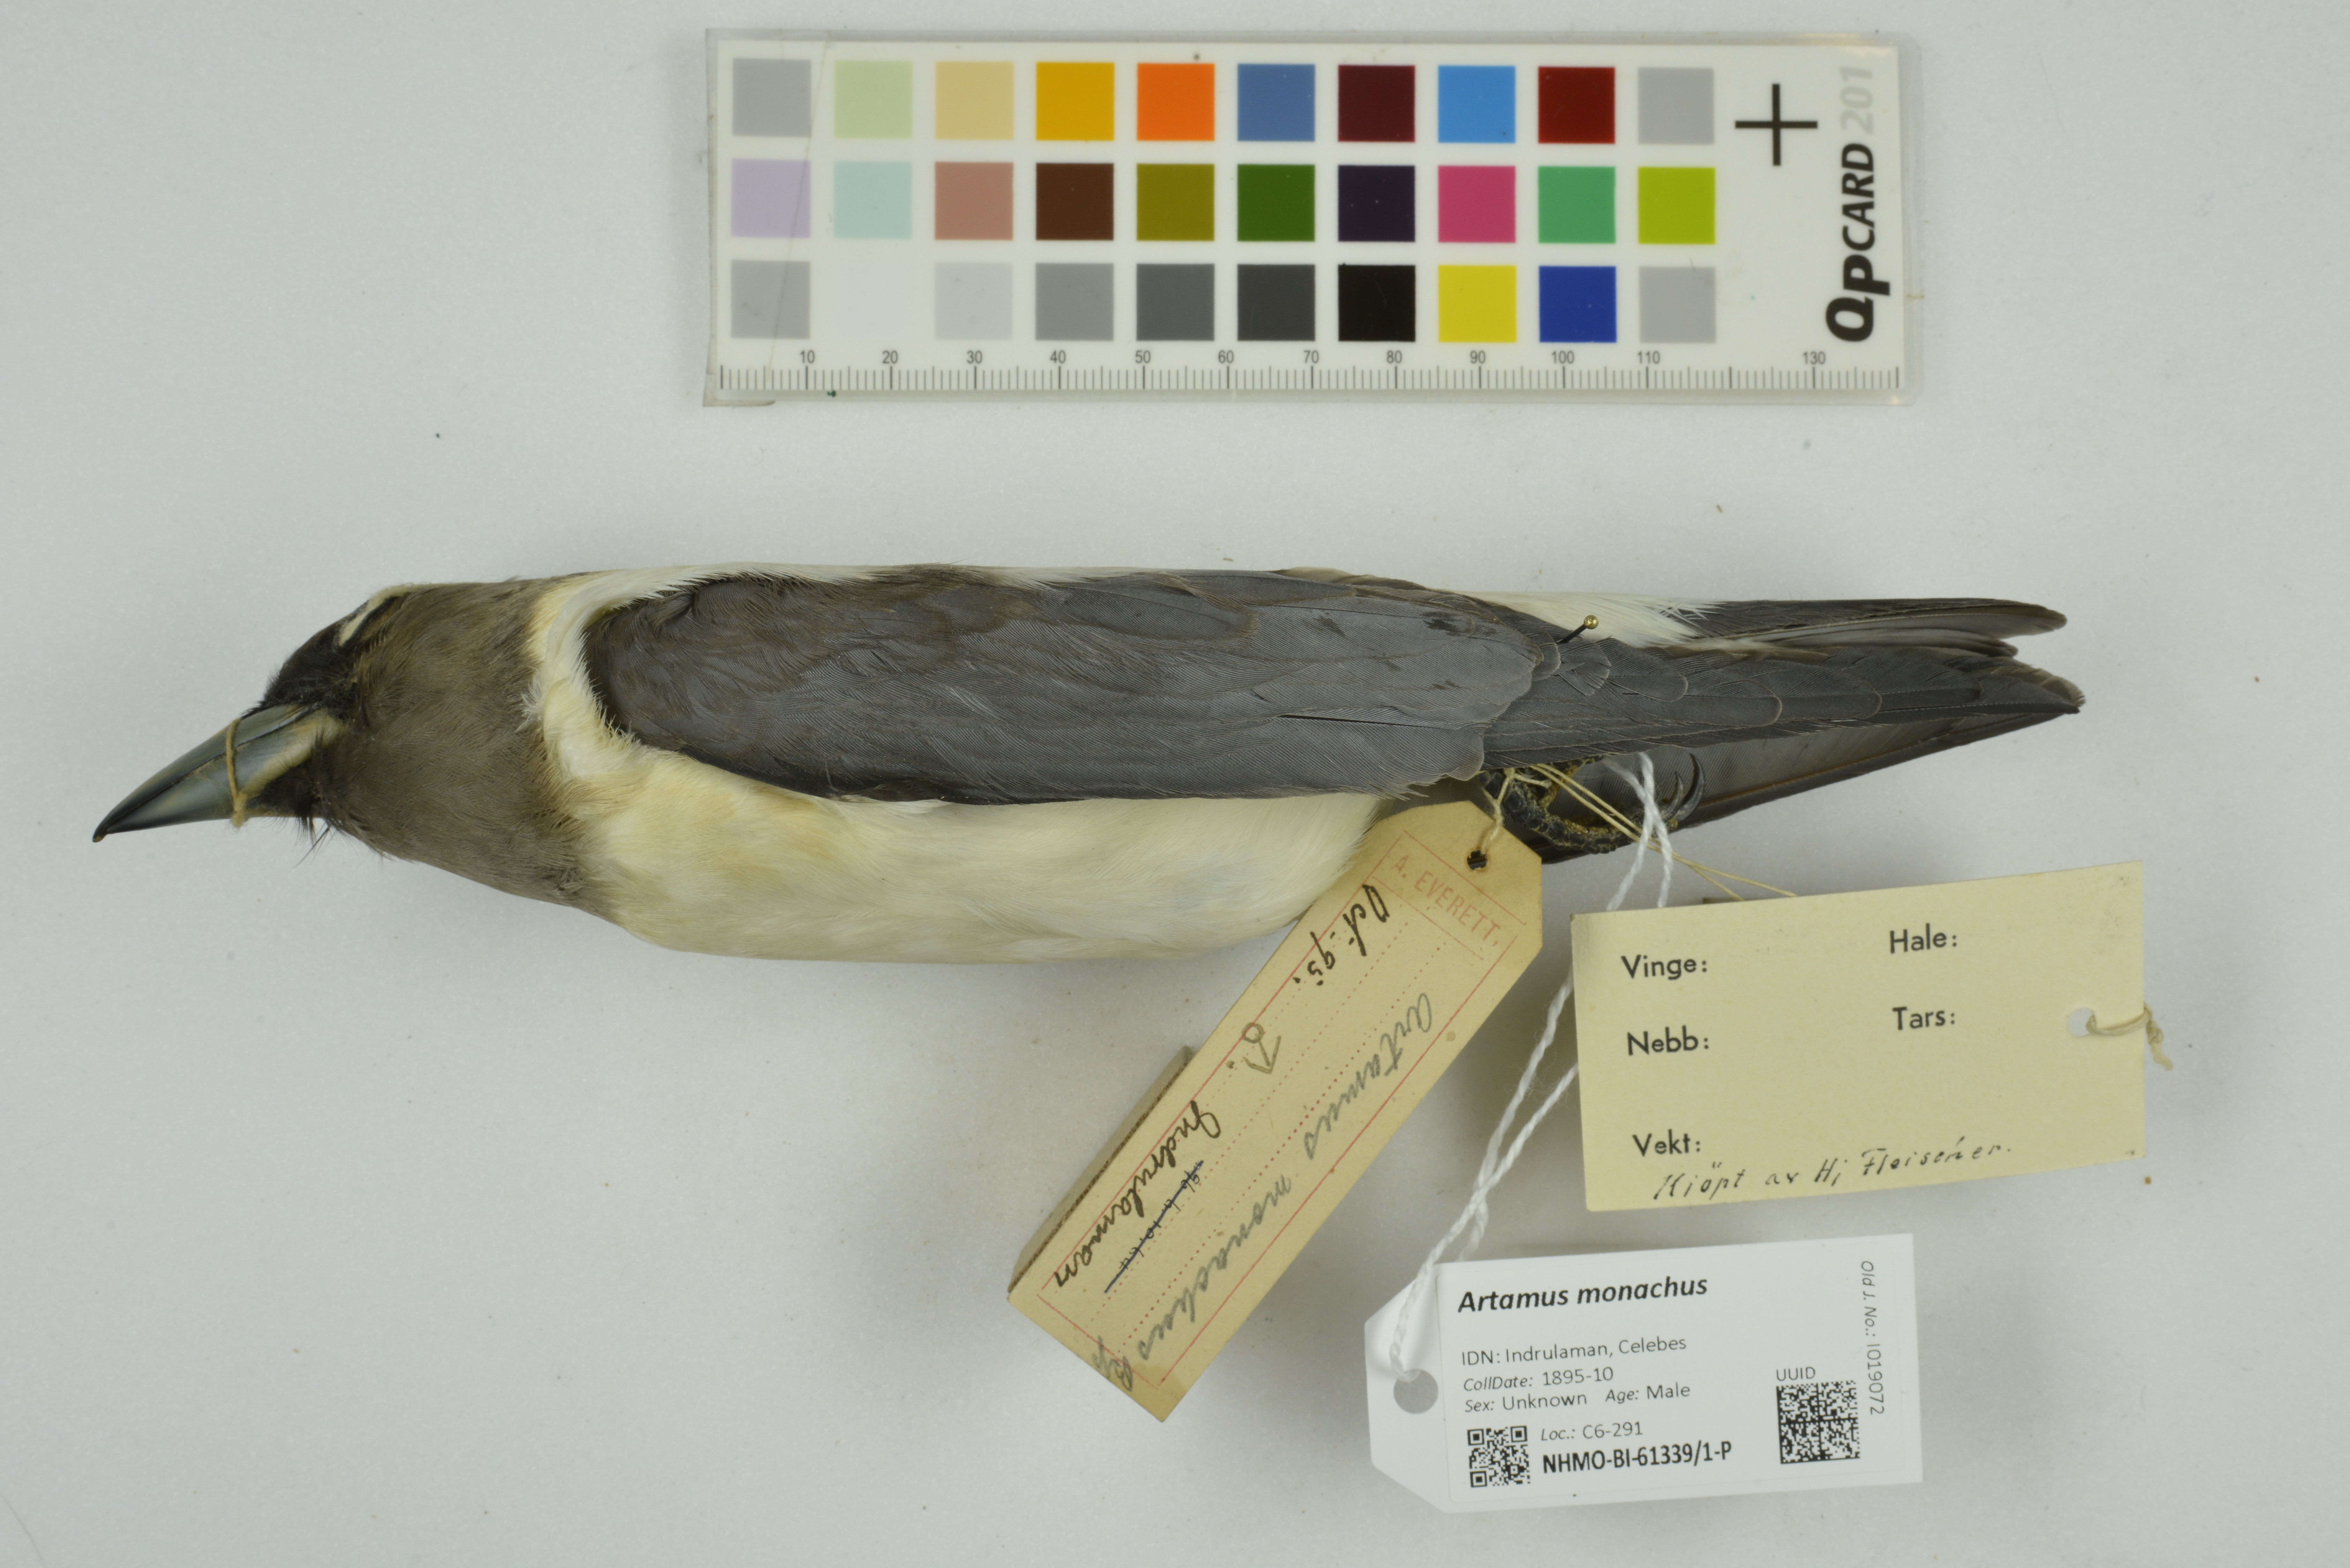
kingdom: Animalia
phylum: Chordata
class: Aves
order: Passeriformes
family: Artamidae
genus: Artamus
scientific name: Artamus monachus
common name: Ivory-backed woodswallow
